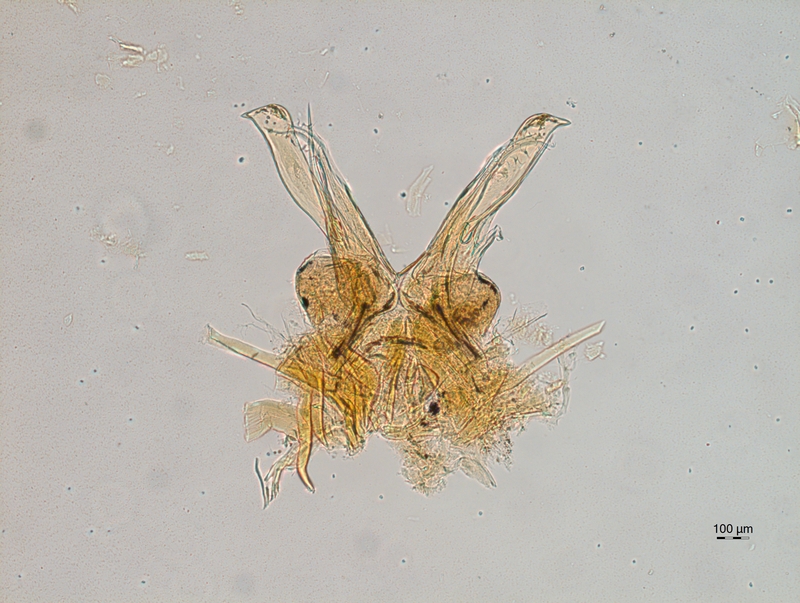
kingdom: Animalia
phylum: Arthropoda
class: Diplopoda
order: Chordeumatida
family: Chordeumatidae
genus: Orthochordeumella
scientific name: Orthochordeumella fulva
